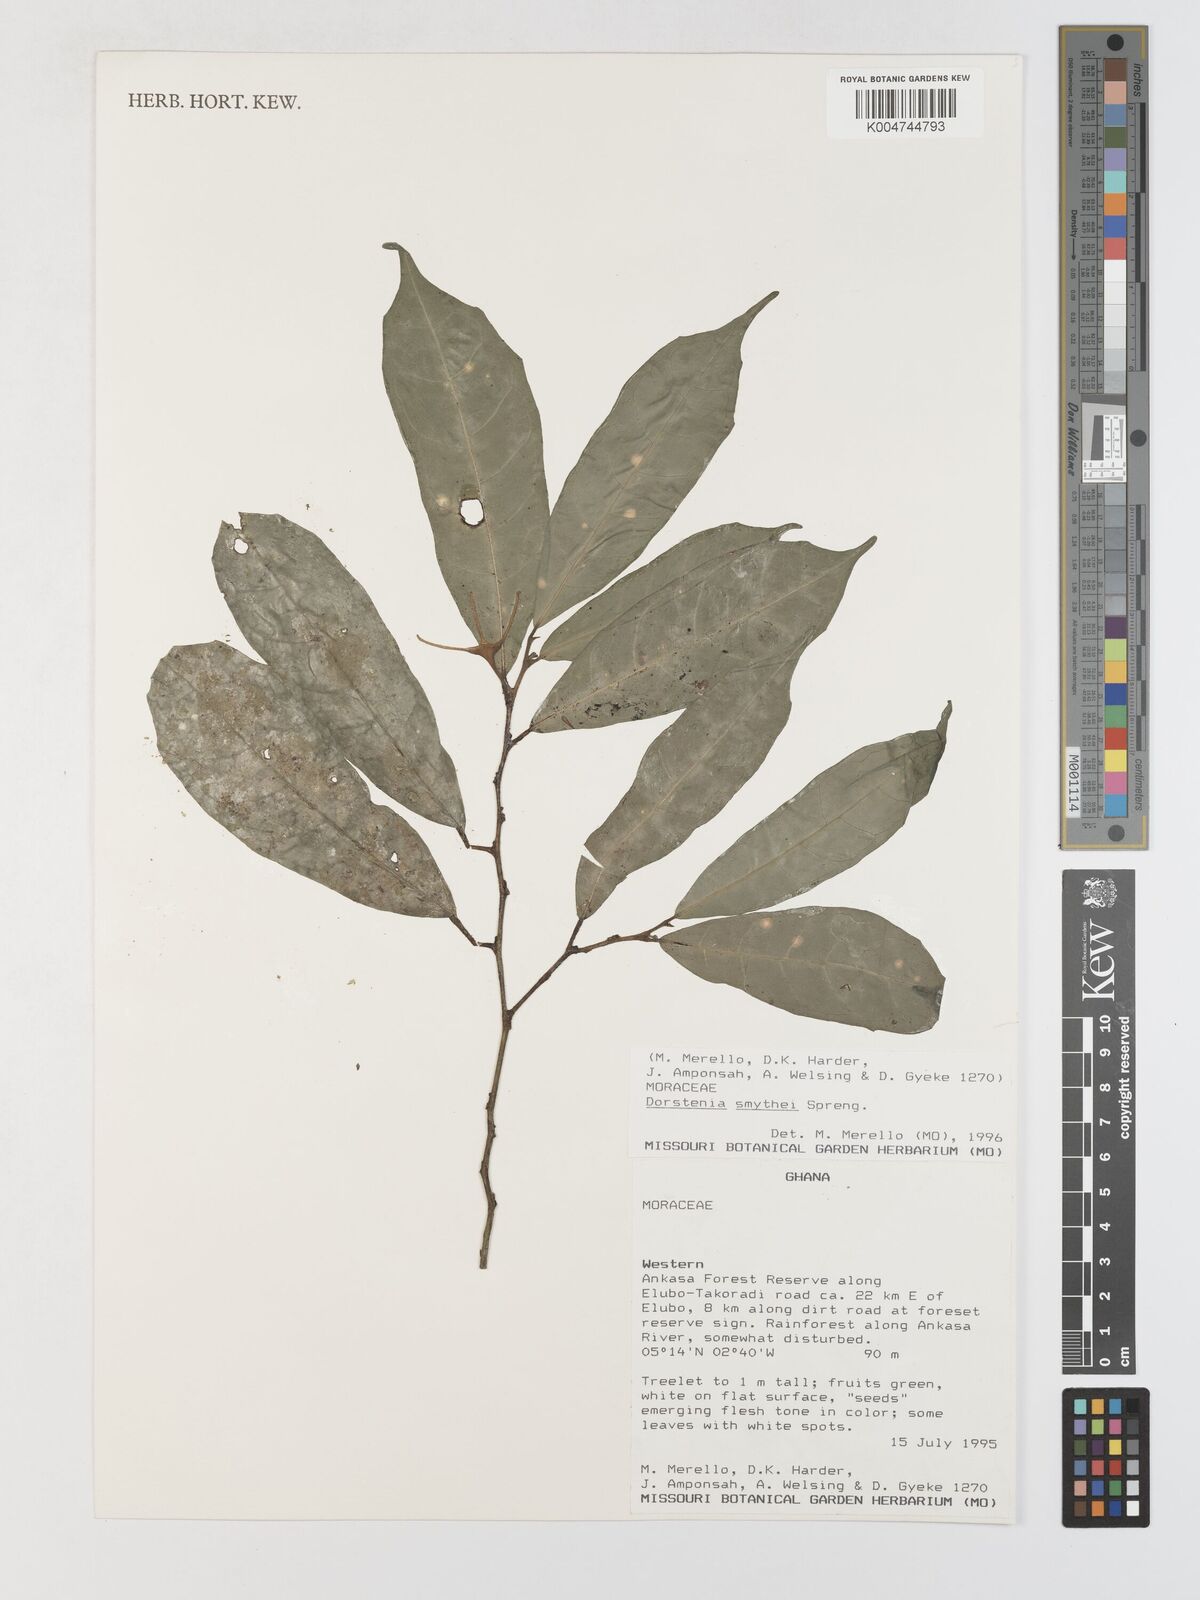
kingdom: Plantae
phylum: Tracheophyta
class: Magnoliopsida
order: Rosales
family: Moraceae
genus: Hijmania
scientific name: Hijmania turbinata
